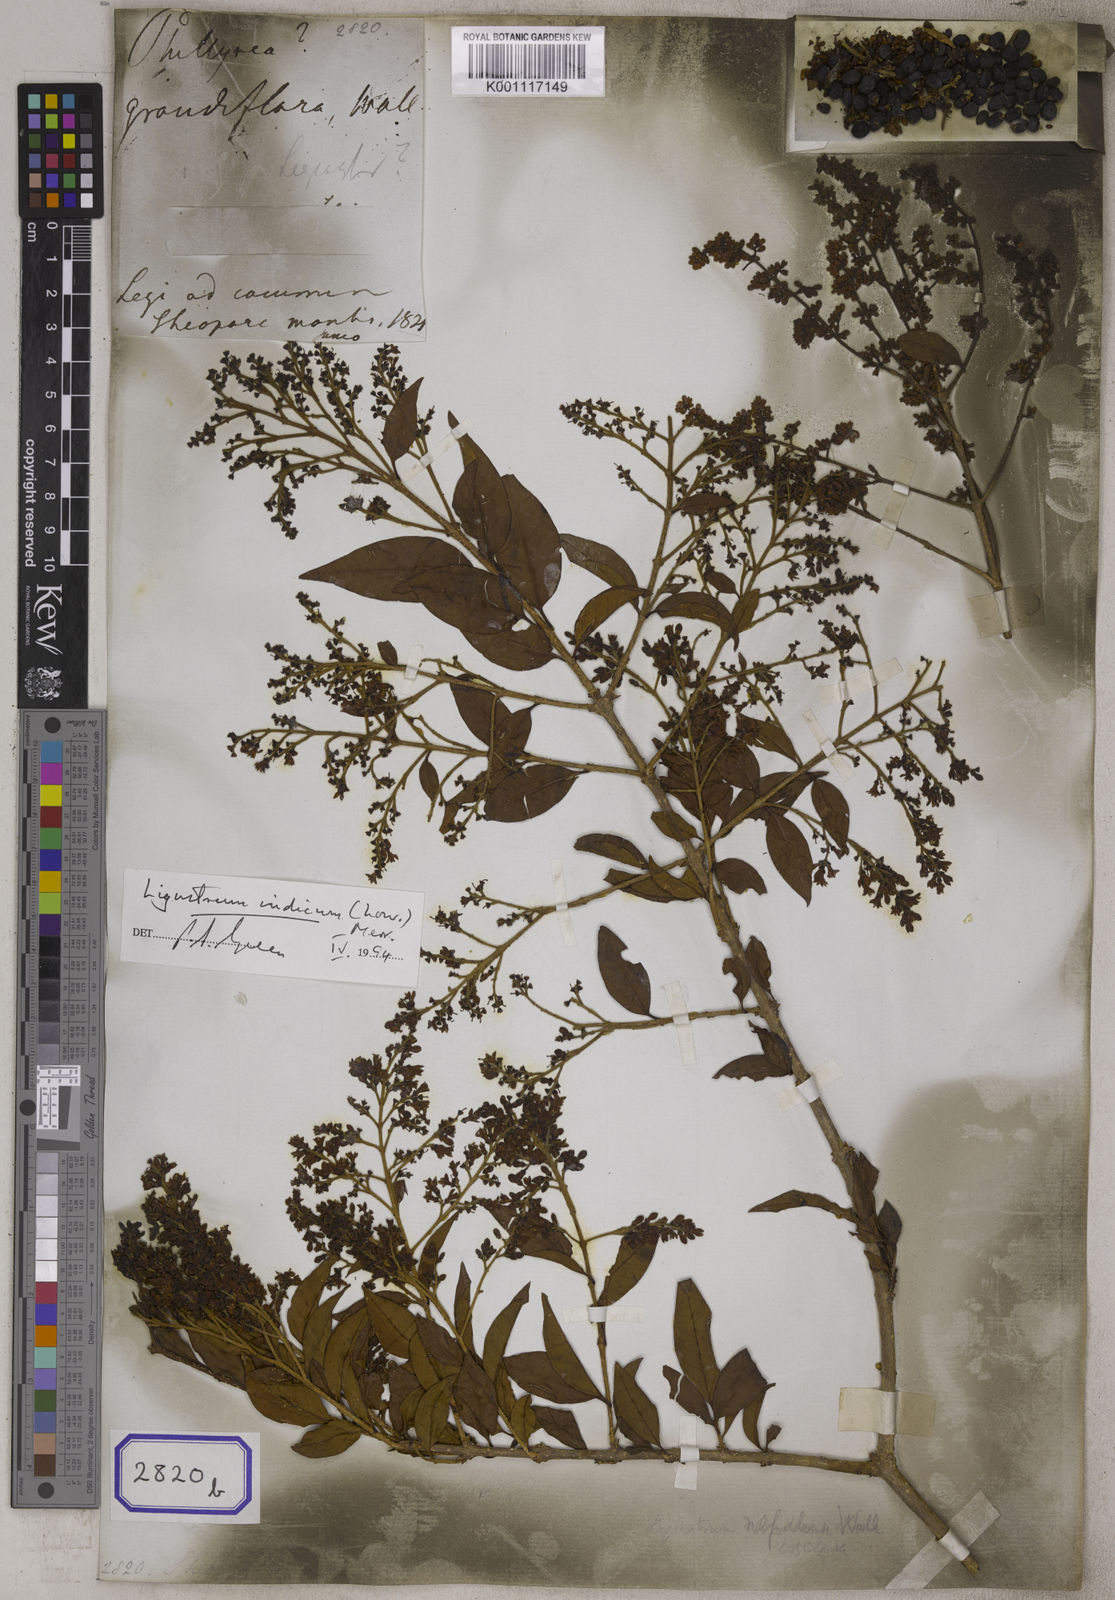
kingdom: Plantae
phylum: Tracheophyta
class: Magnoliopsida
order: Lamiales
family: Oleaceae
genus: Olea
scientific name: Olea
